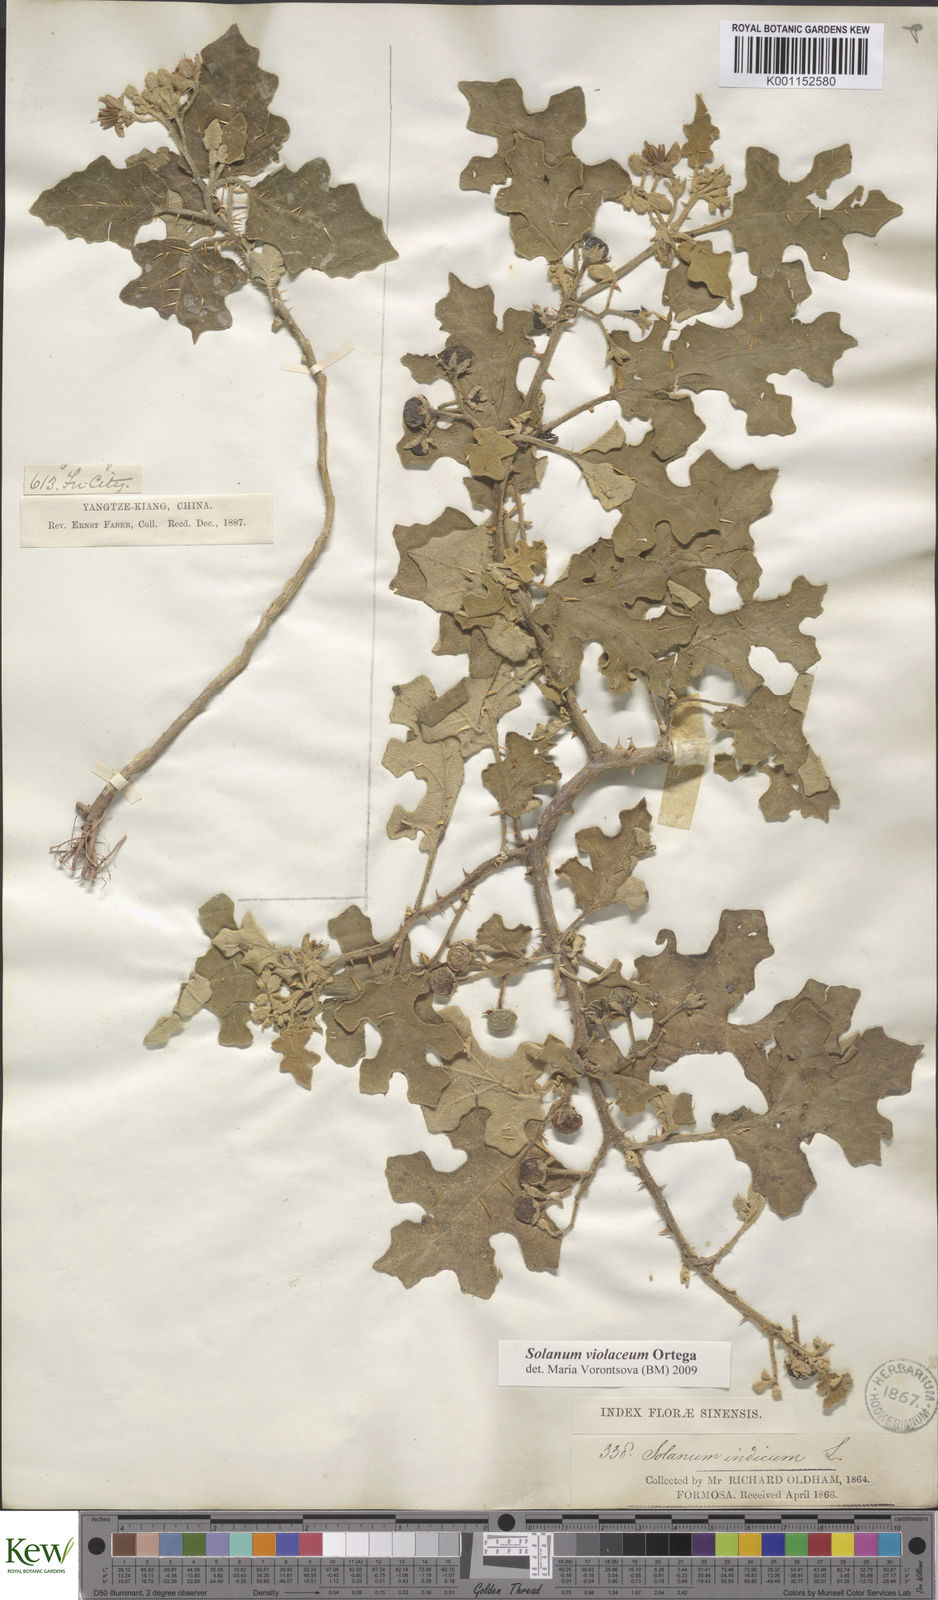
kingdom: Plantae
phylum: Tracheophyta
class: Magnoliopsida
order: Solanales
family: Solanaceae
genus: Solanum
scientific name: Solanum violaceum
